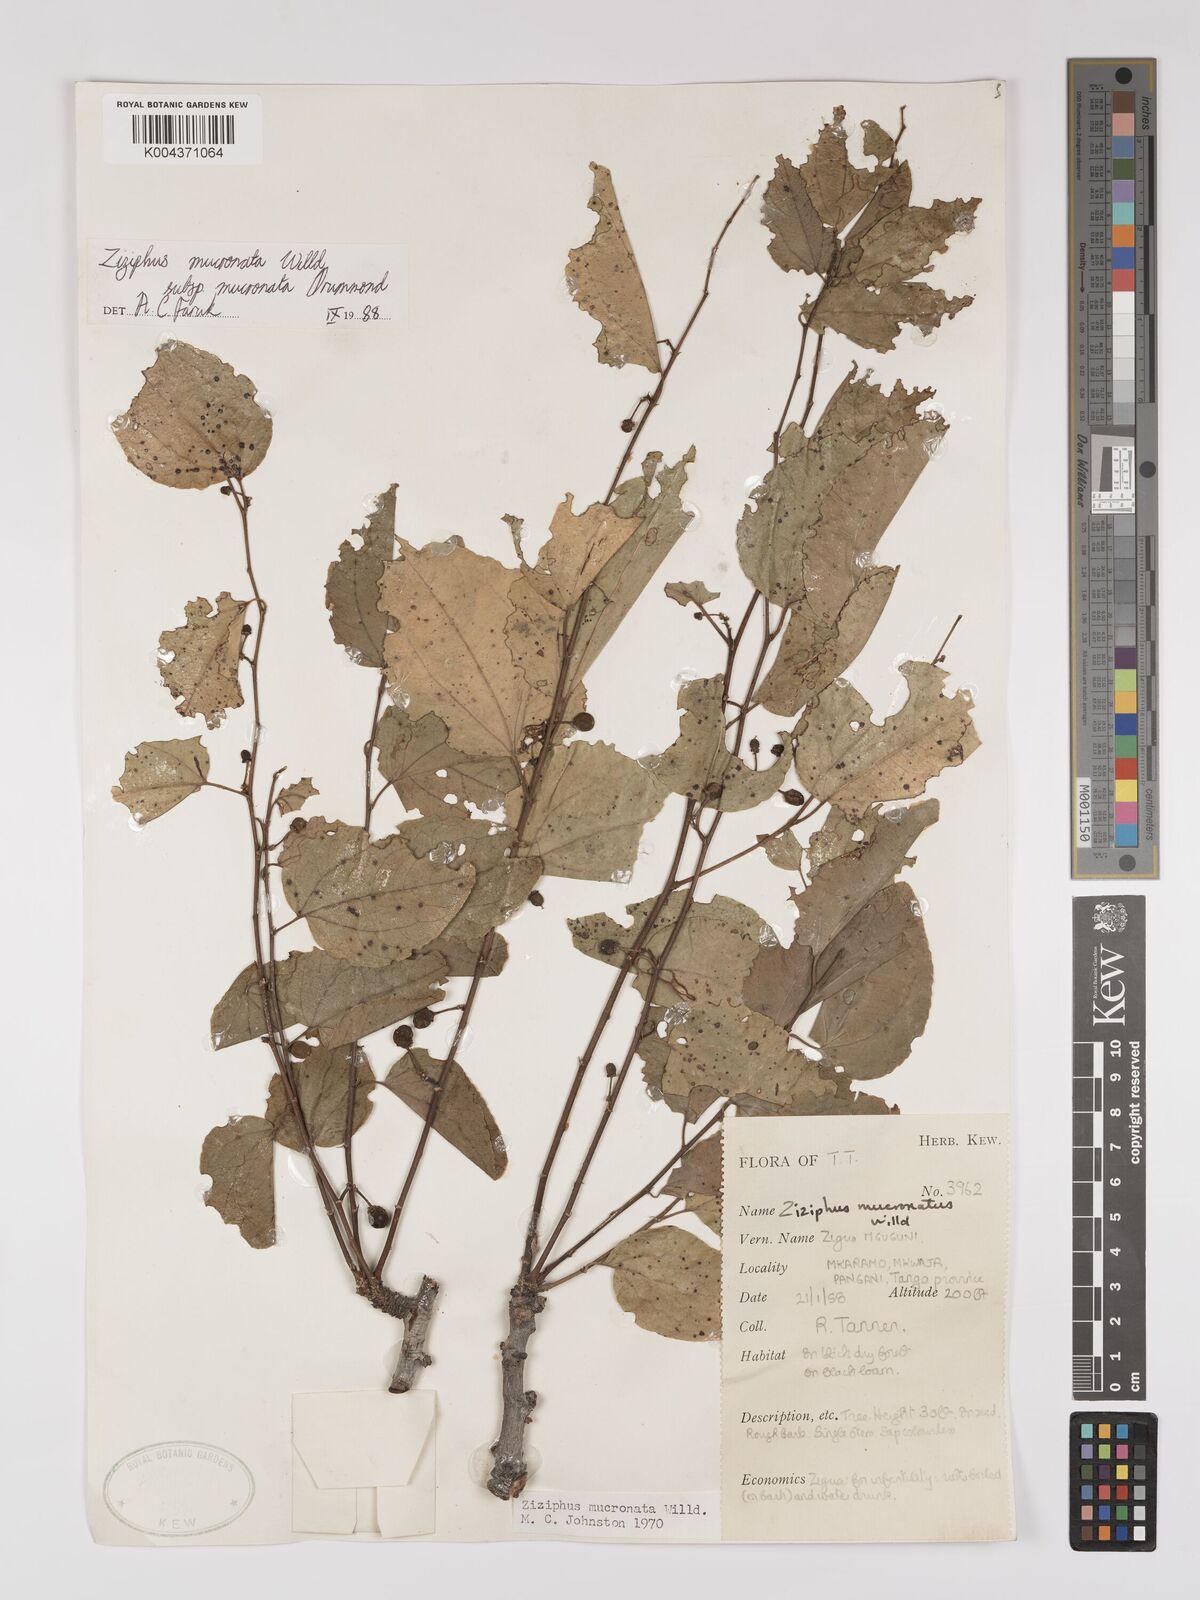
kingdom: Plantae
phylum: Tracheophyta
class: Magnoliopsida
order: Rosales
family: Rhamnaceae
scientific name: Rhamnaceae
